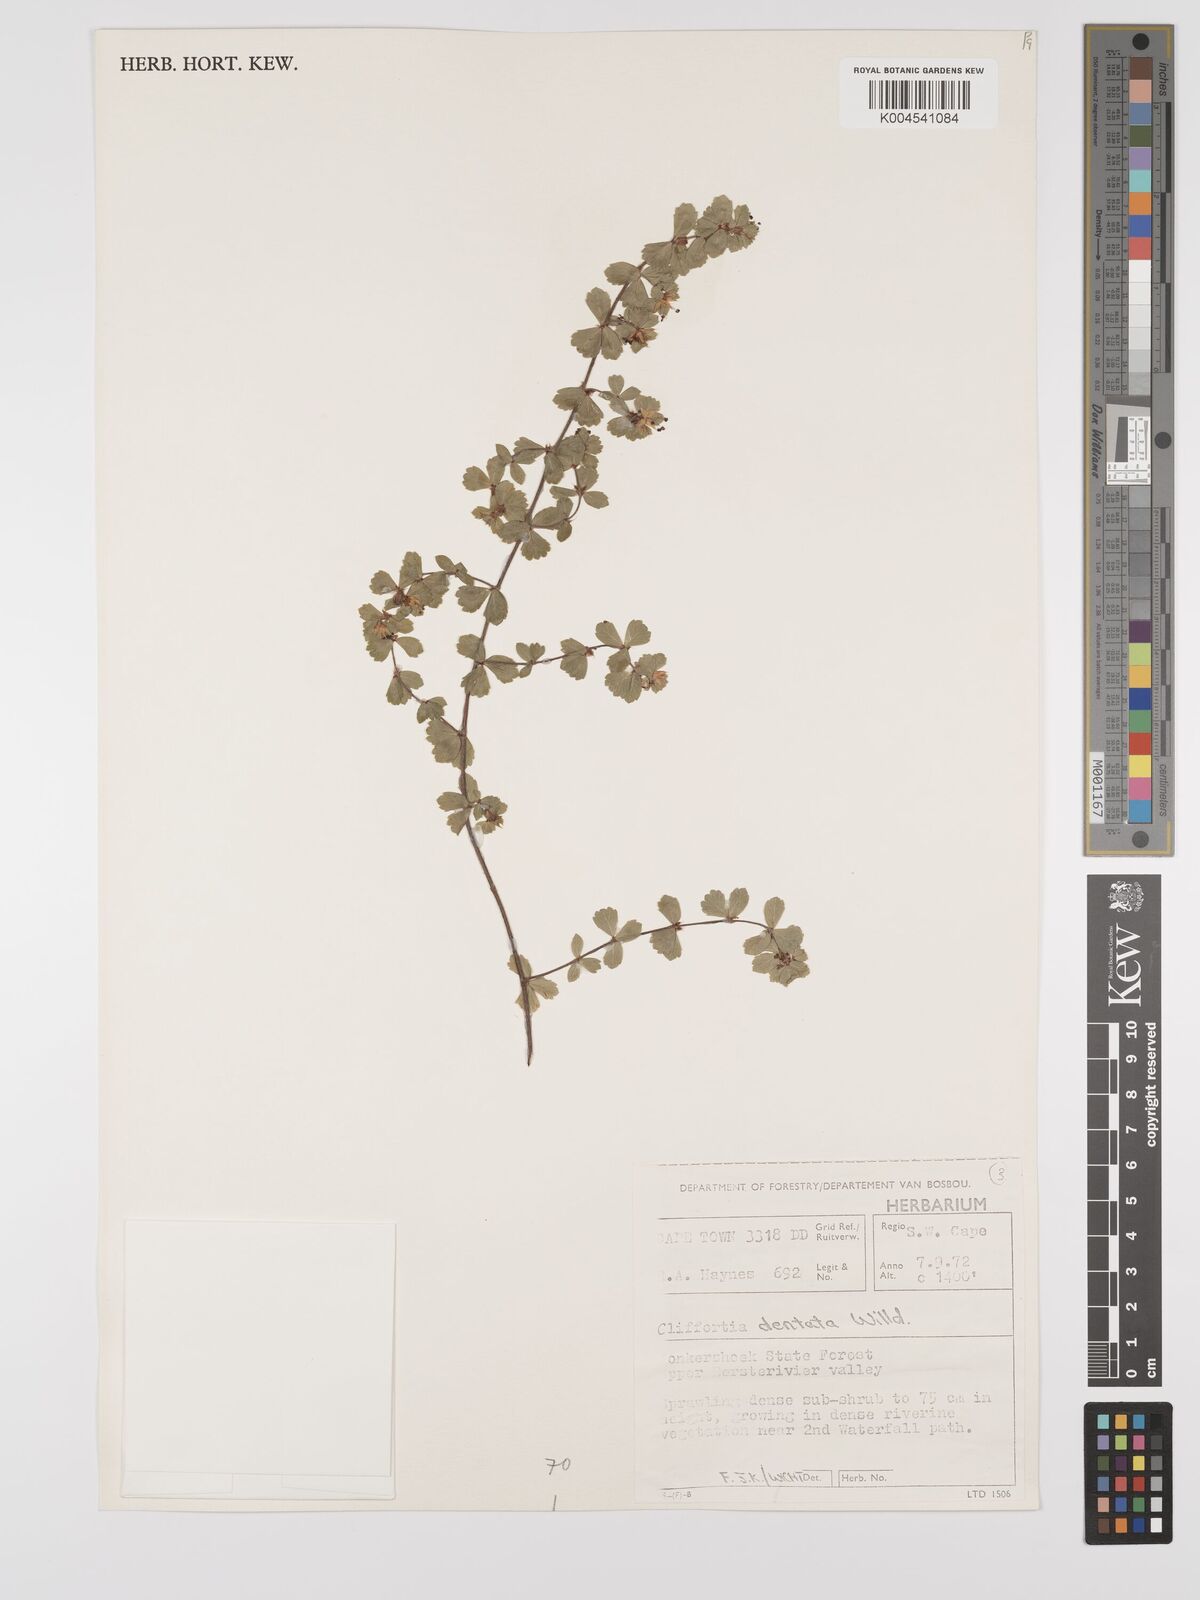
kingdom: Plantae
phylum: Tracheophyta
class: Magnoliopsida
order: Rosales
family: Rosaceae
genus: Cliffortia
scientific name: Cliffortia
